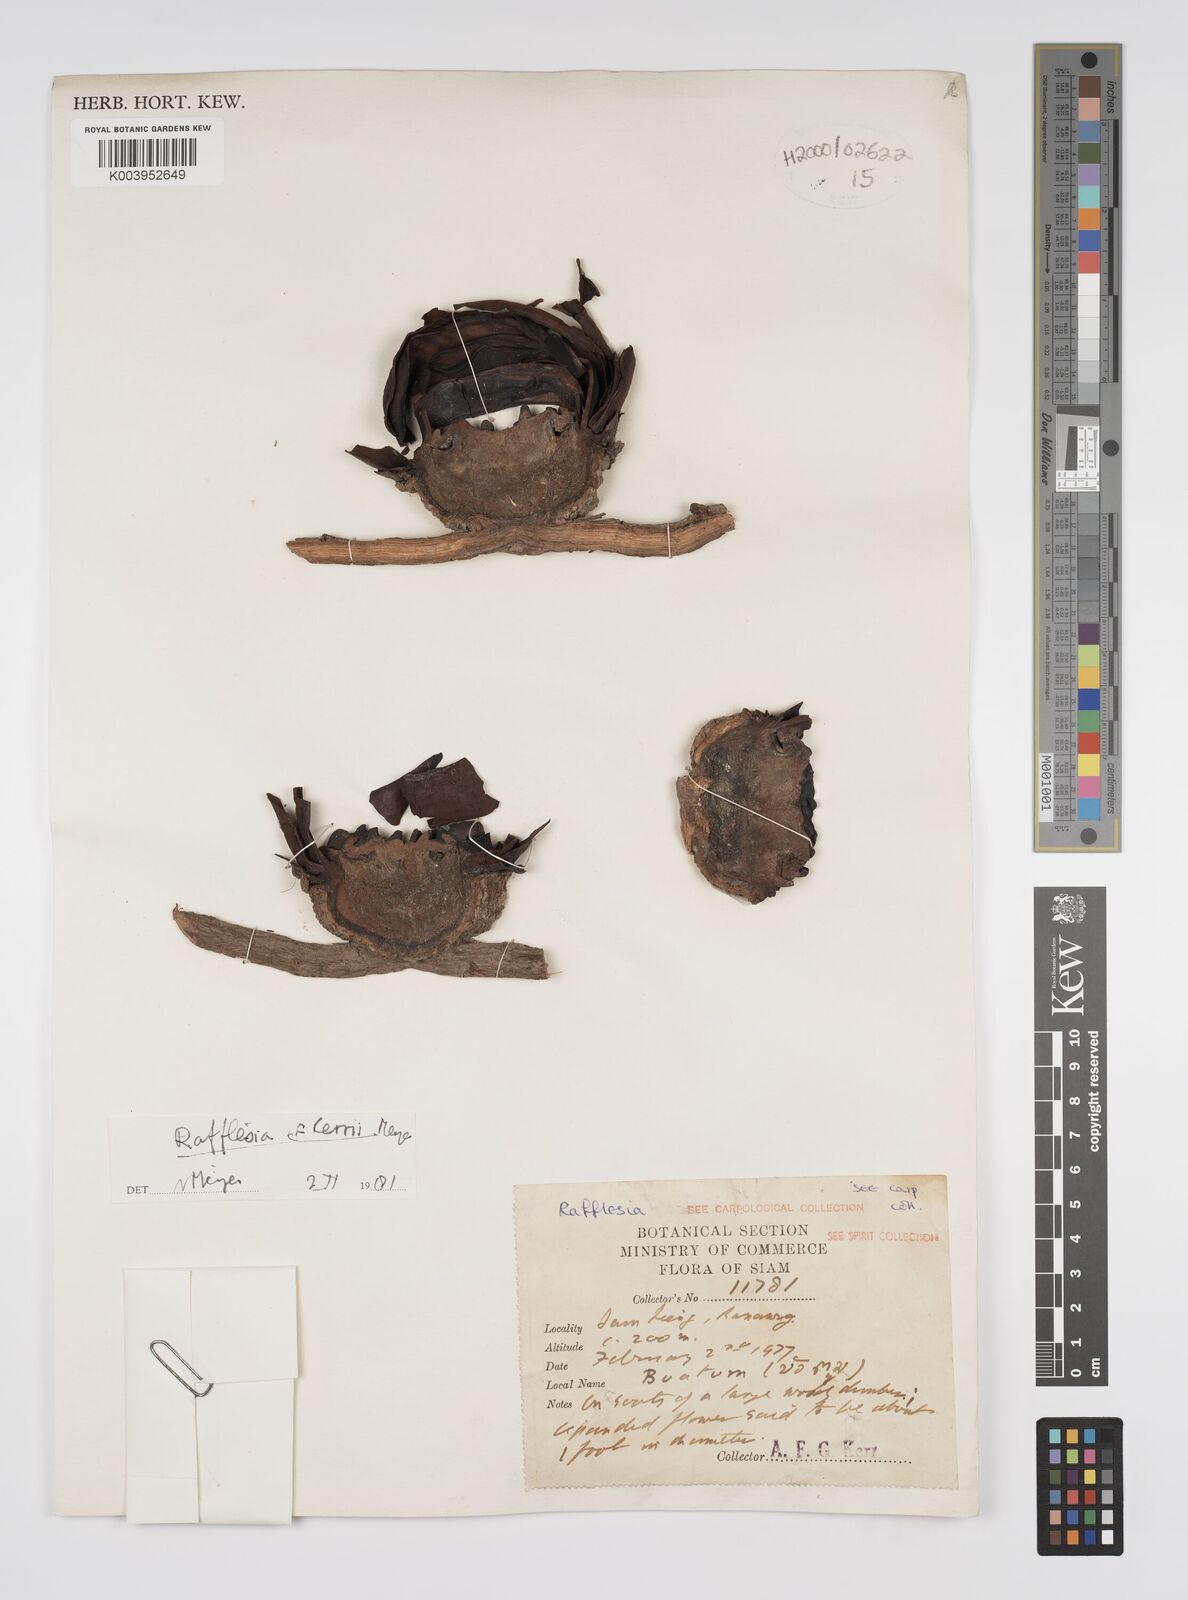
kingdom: Plantae
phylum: Tracheophyta
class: Magnoliopsida
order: Malpighiales
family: Rafflesiaceae
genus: Rafflesia
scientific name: Rafflesia kerrii
